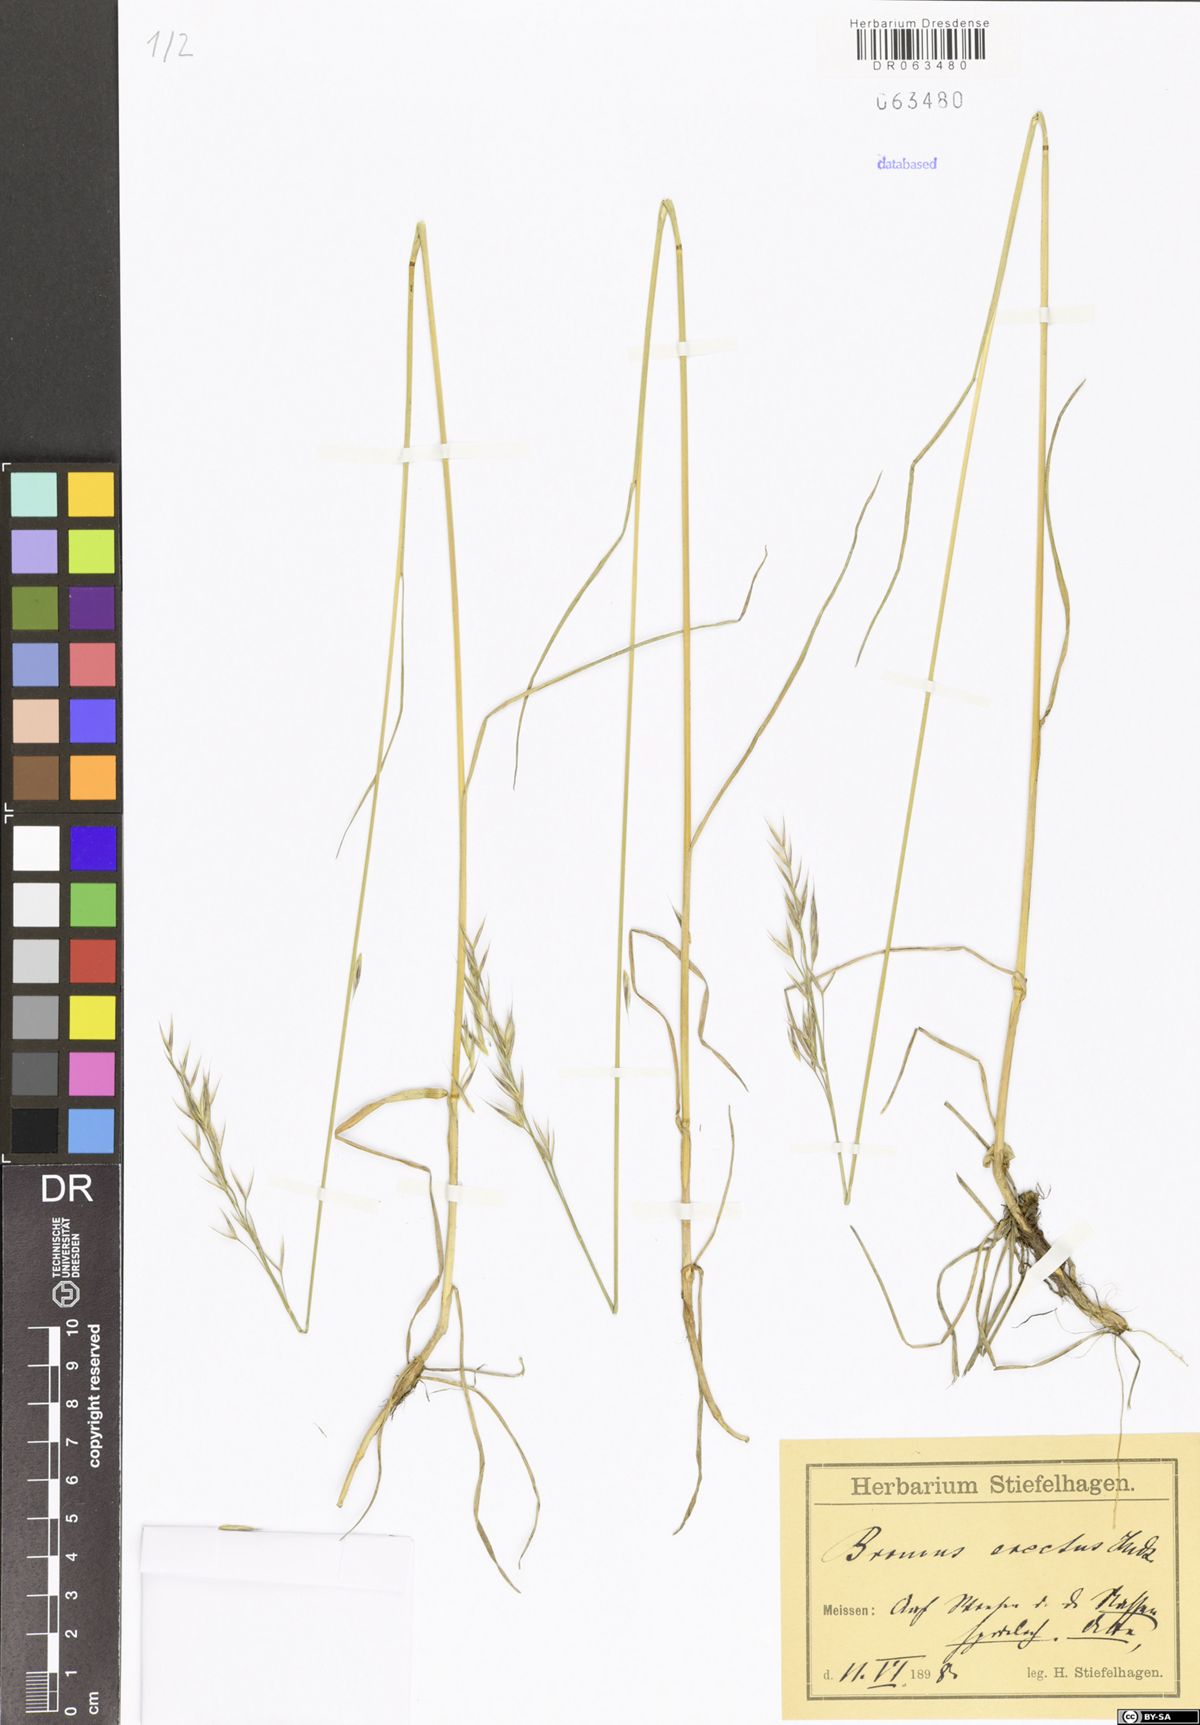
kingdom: Plantae
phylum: Tracheophyta
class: Liliopsida
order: Poales
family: Poaceae
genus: Bromus
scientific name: Bromus erectus
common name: Erect brome
